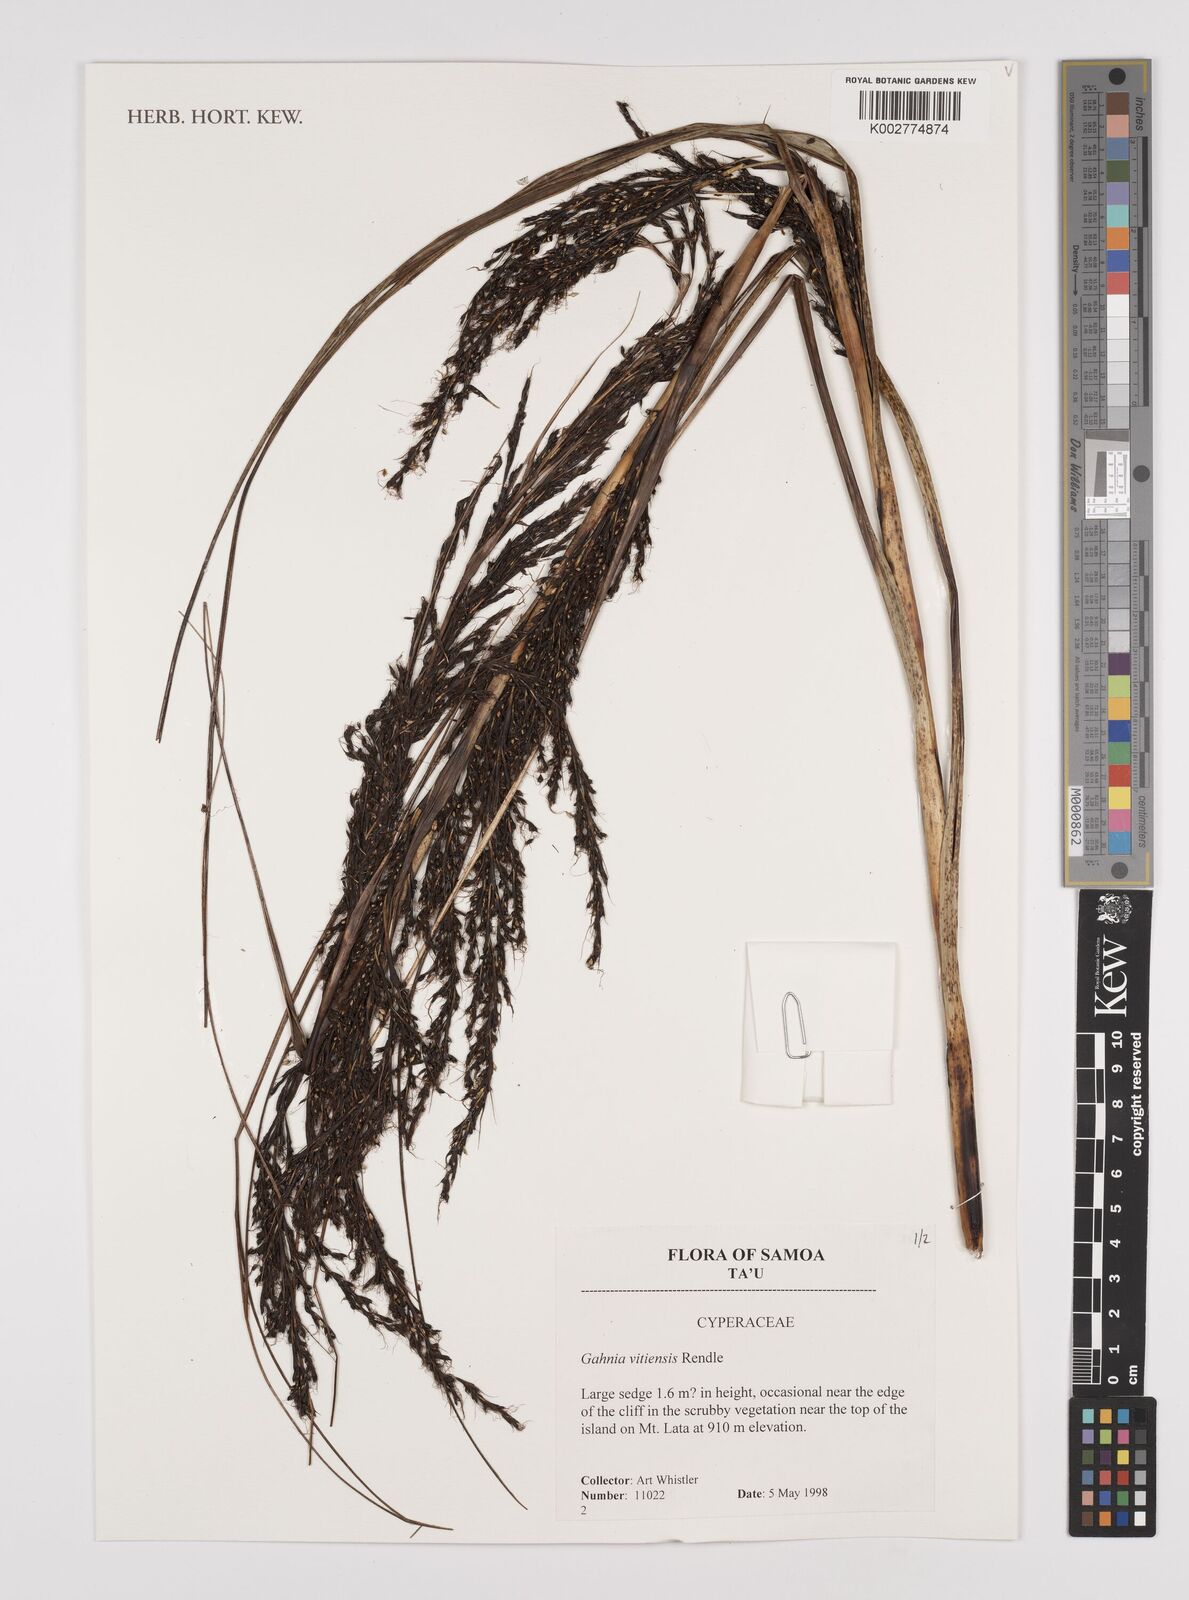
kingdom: Plantae
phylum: Tracheophyta
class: Liliopsida
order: Poales
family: Cyperaceae
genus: Gahnia
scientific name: Gahnia vitiensis
